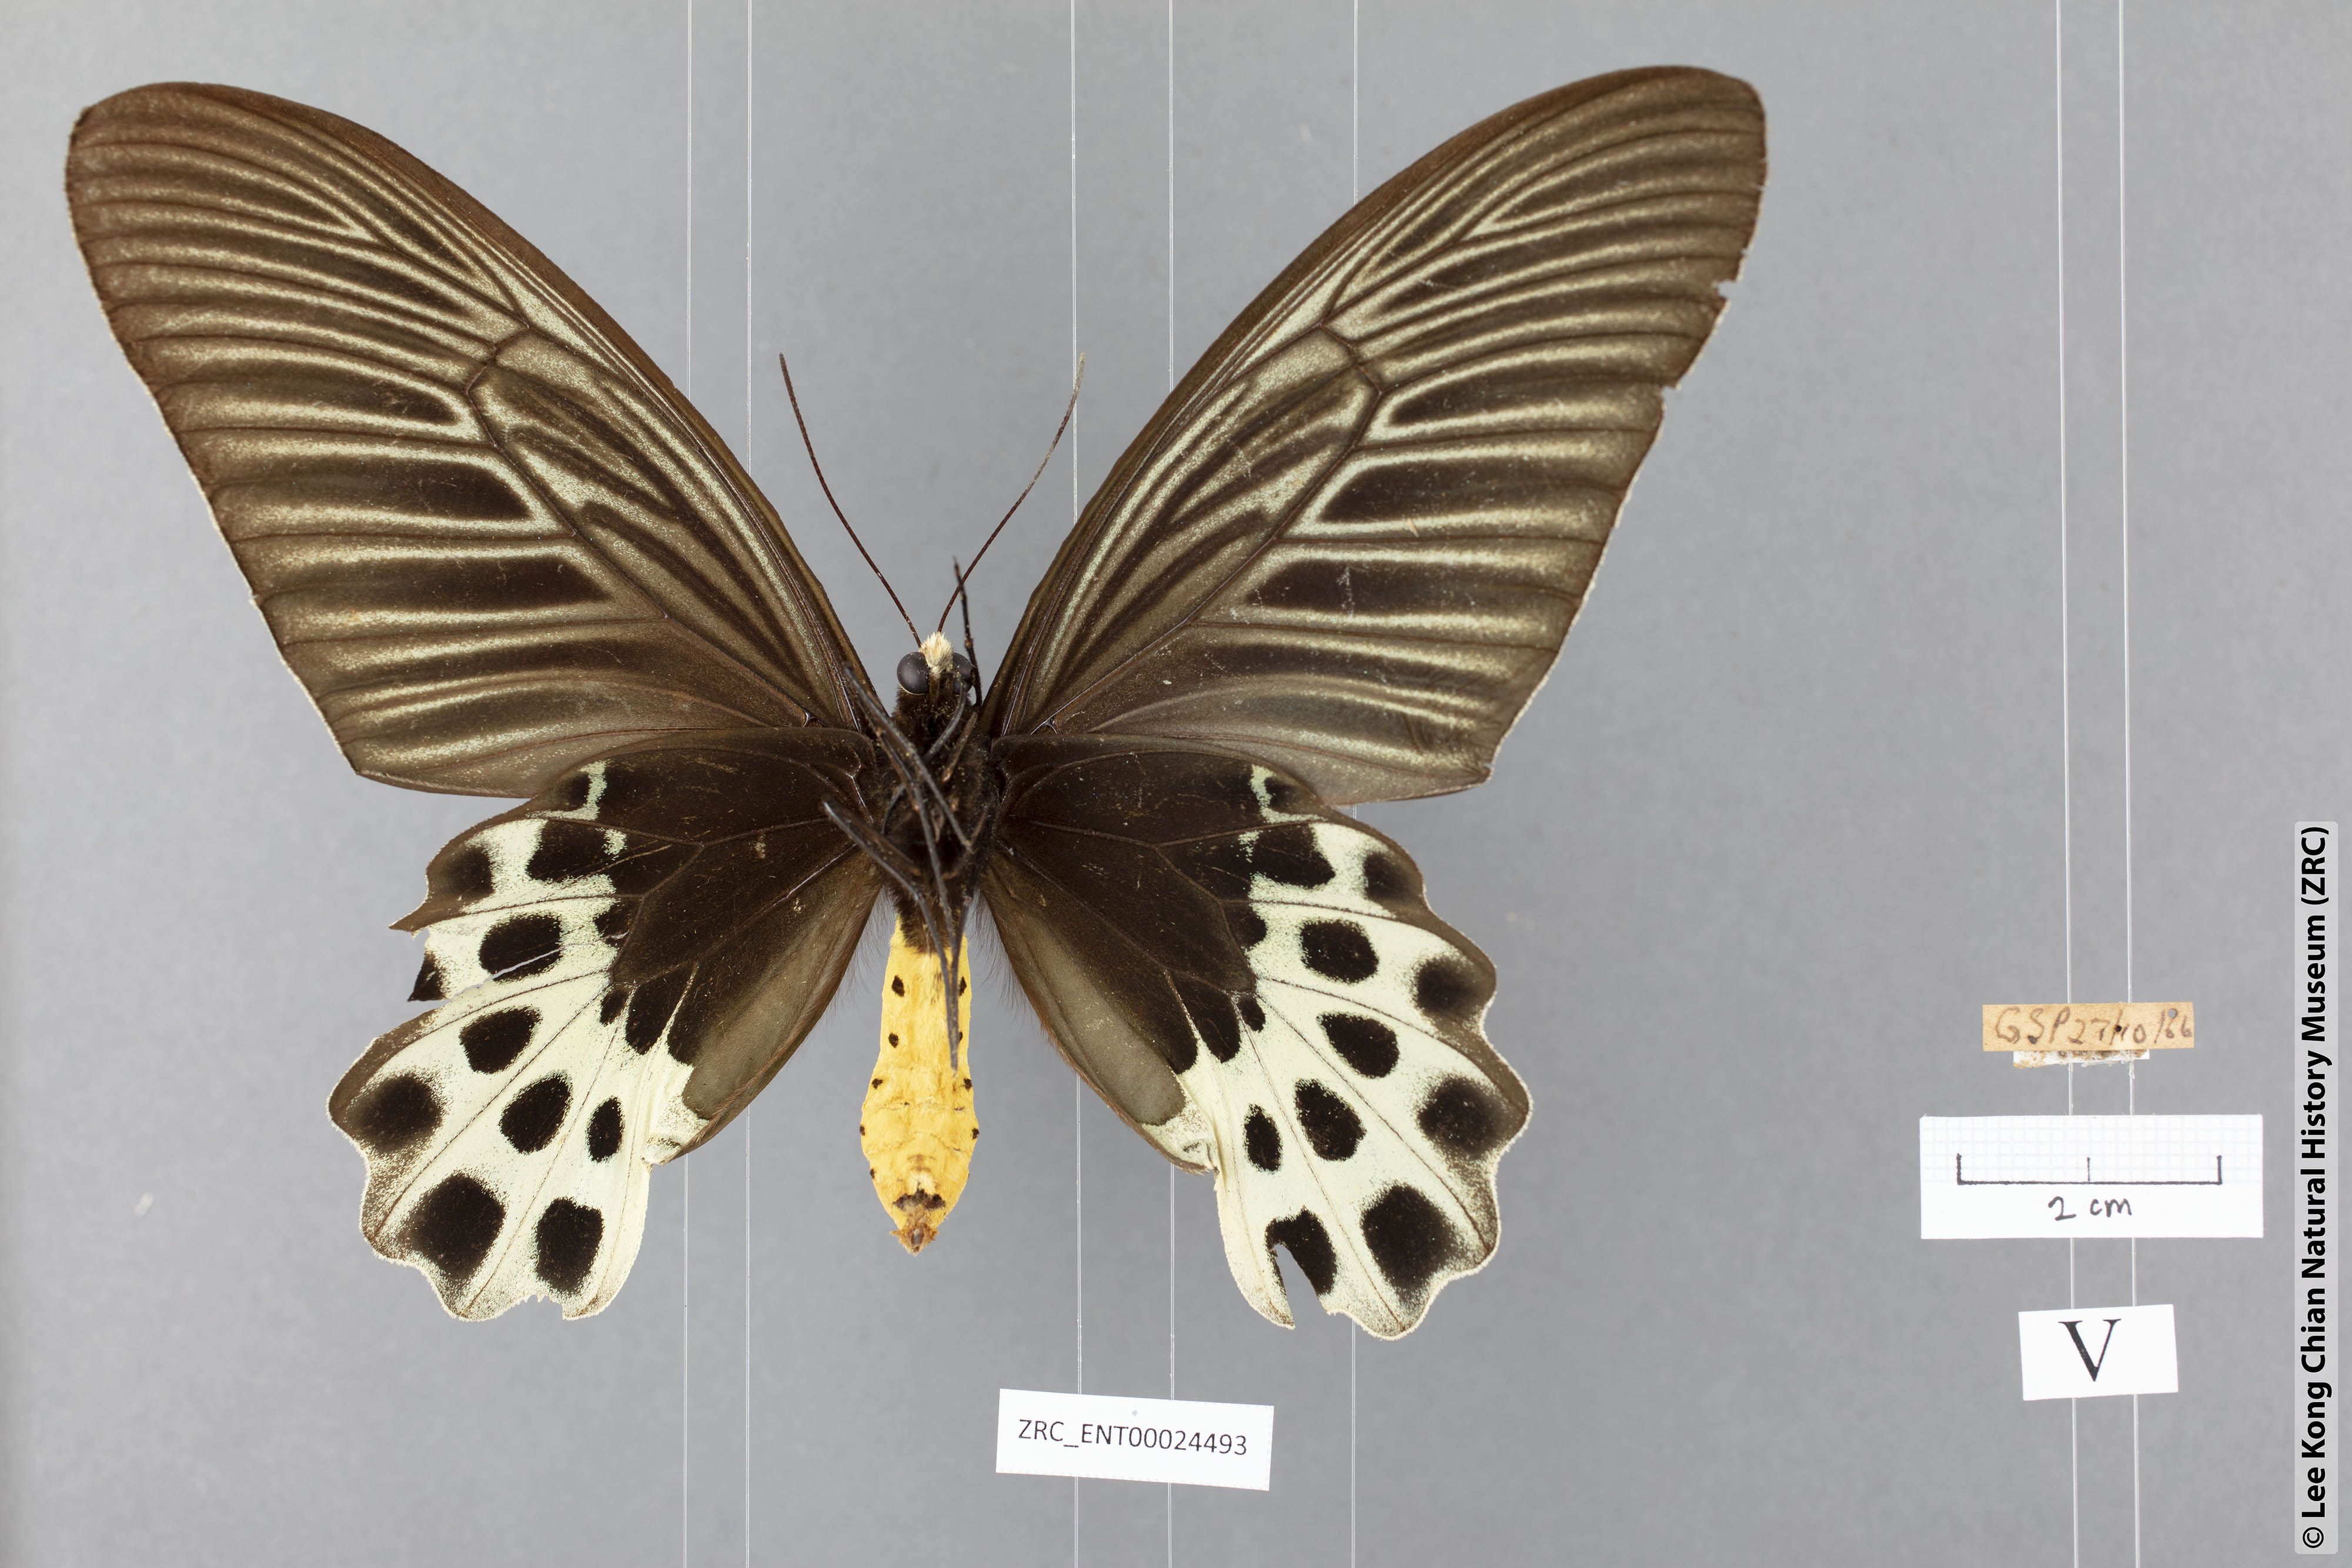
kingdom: Animalia
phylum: Arthropoda
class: Insecta
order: Lepidoptera
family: Papilionidae
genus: Atrophaneura
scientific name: Atrophaneura sycorax
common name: Whitehead batwing
